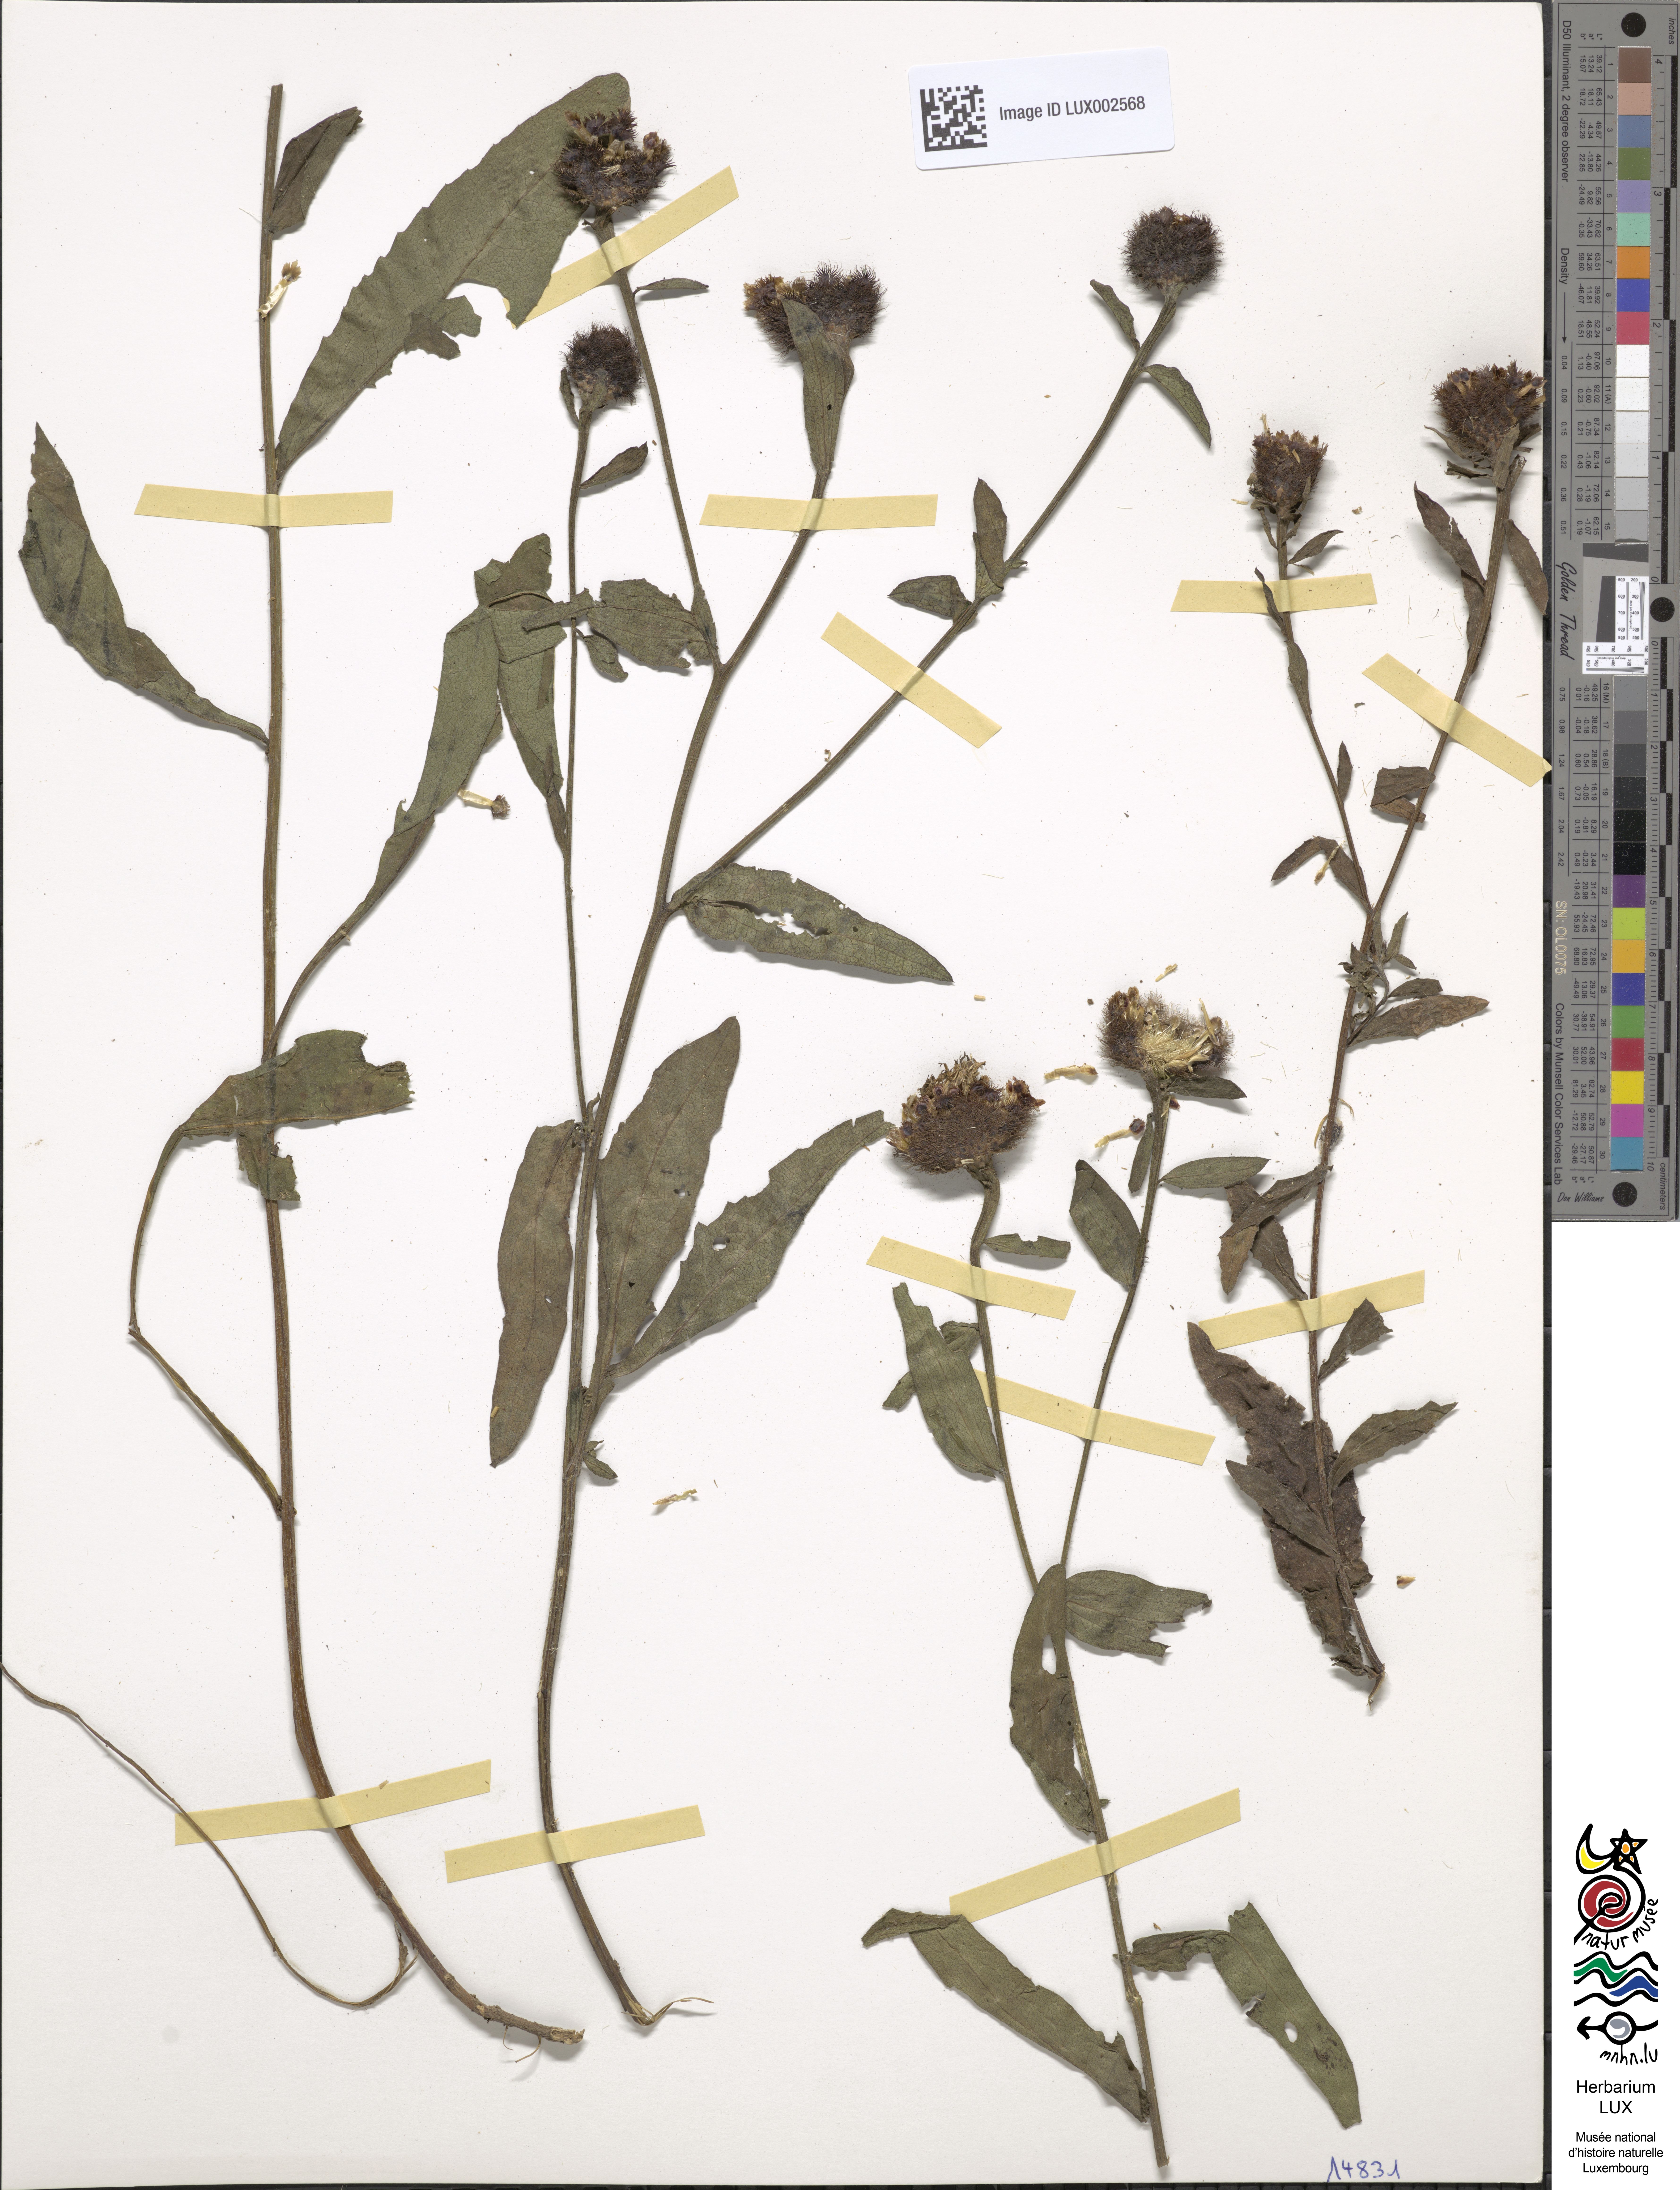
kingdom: Plantae
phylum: Tracheophyta
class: Magnoliopsida
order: Asterales
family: Asteraceae
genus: Centaurea
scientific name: Centaurea nigra
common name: Lesser knapweed
